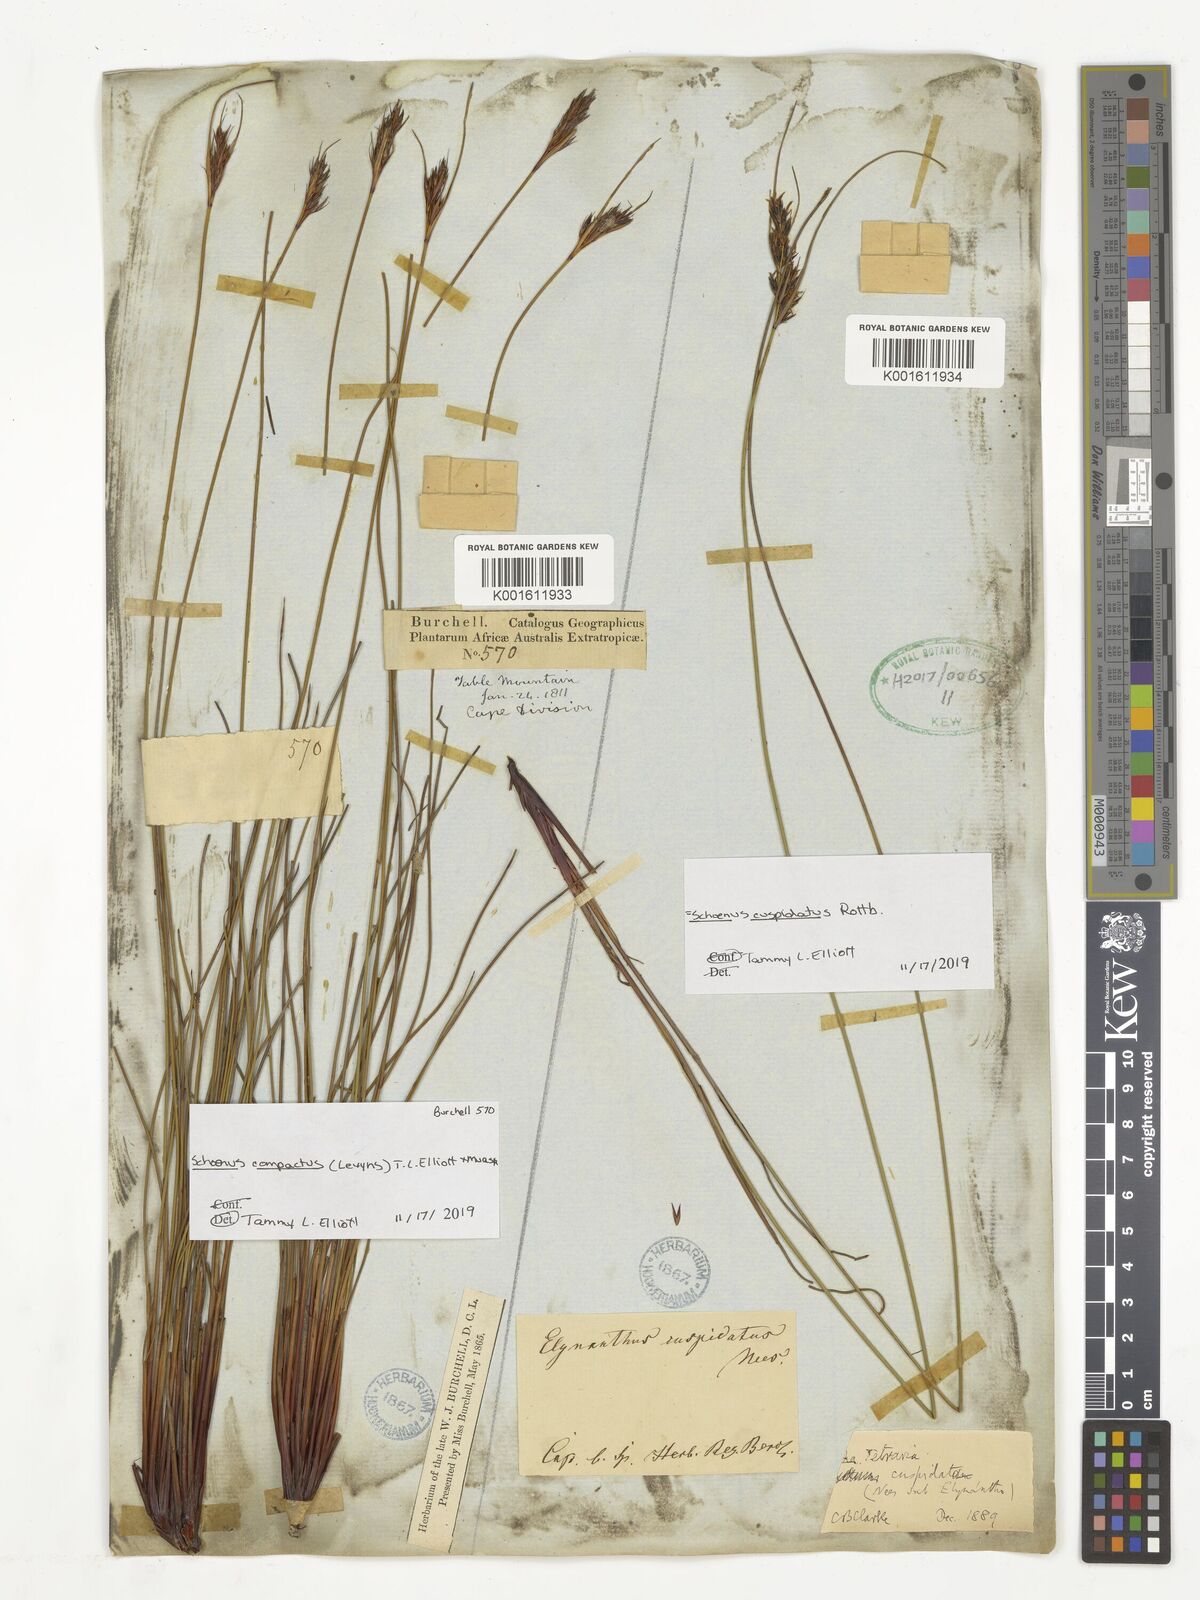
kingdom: Plantae
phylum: Tracheophyta
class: Liliopsida
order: Poales
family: Cyperaceae
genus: Schoenus
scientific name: Schoenus compactus
